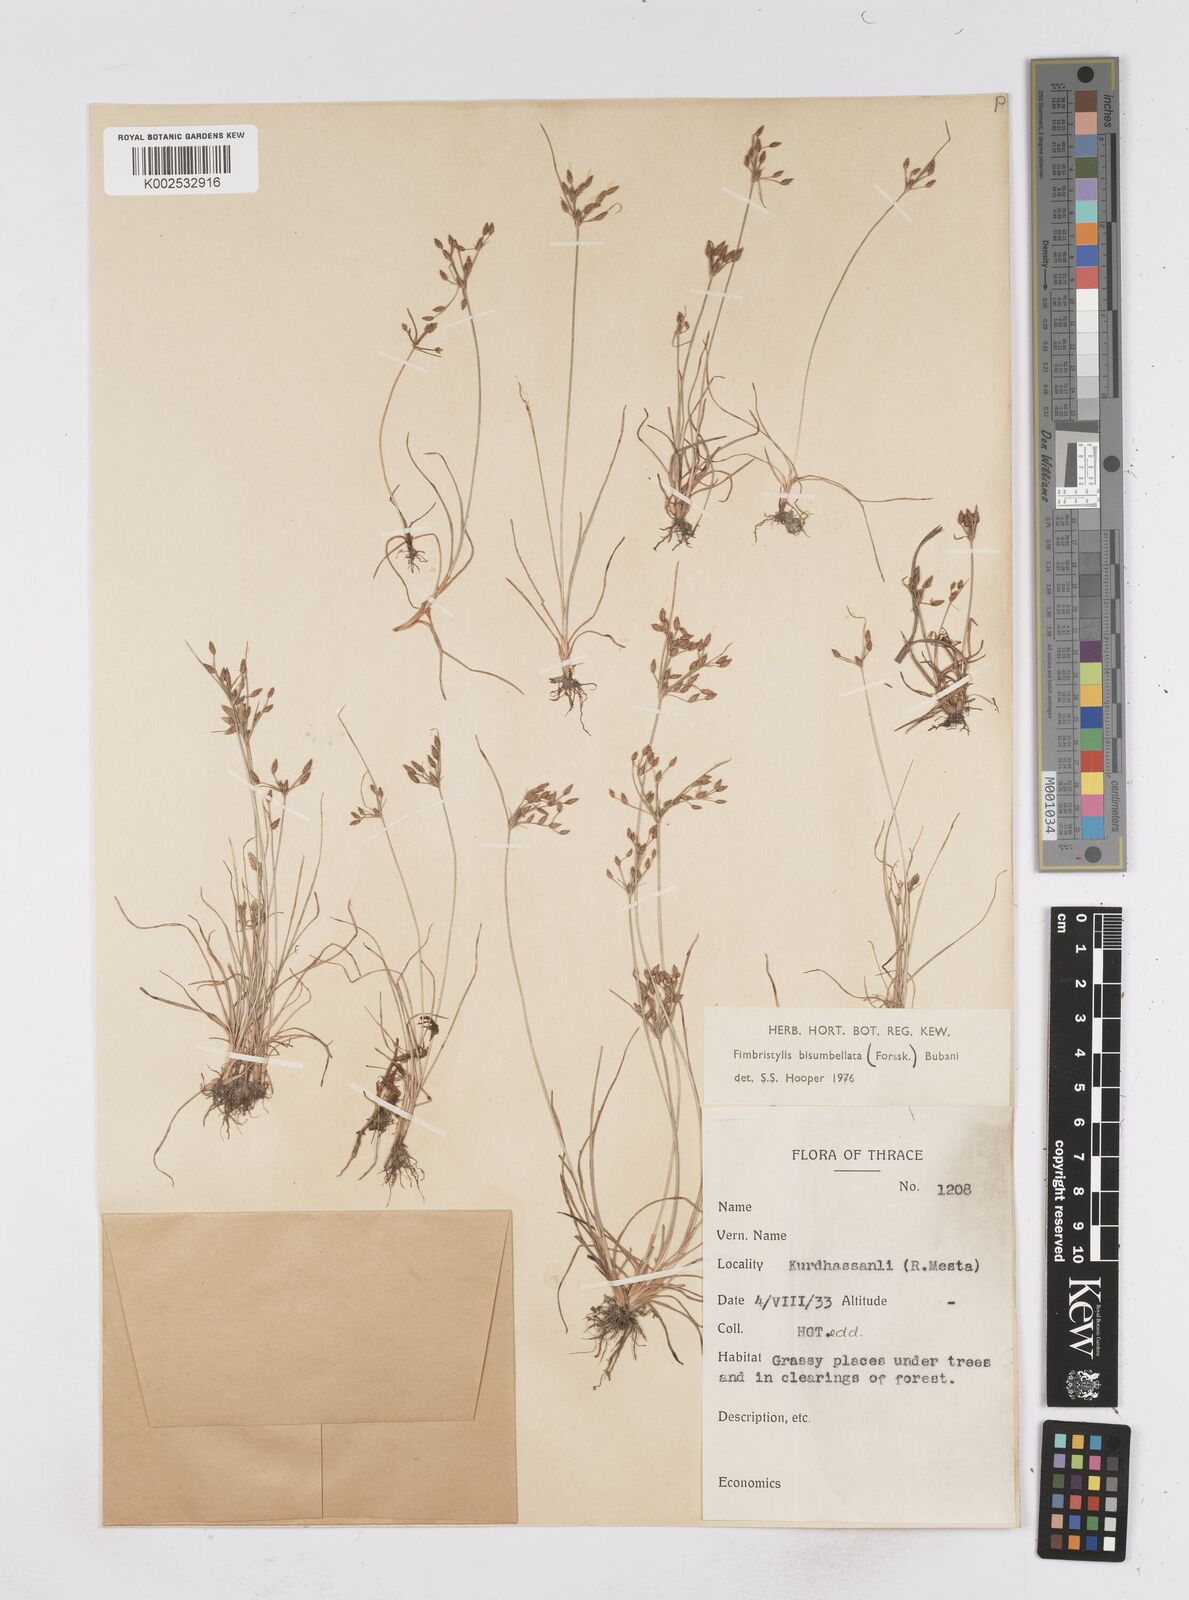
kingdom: Plantae
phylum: Tracheophyta
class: Liliopsida
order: Poales
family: Cyperaceae
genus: Fimbristylis
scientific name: Fimbristylis bisumbellata
